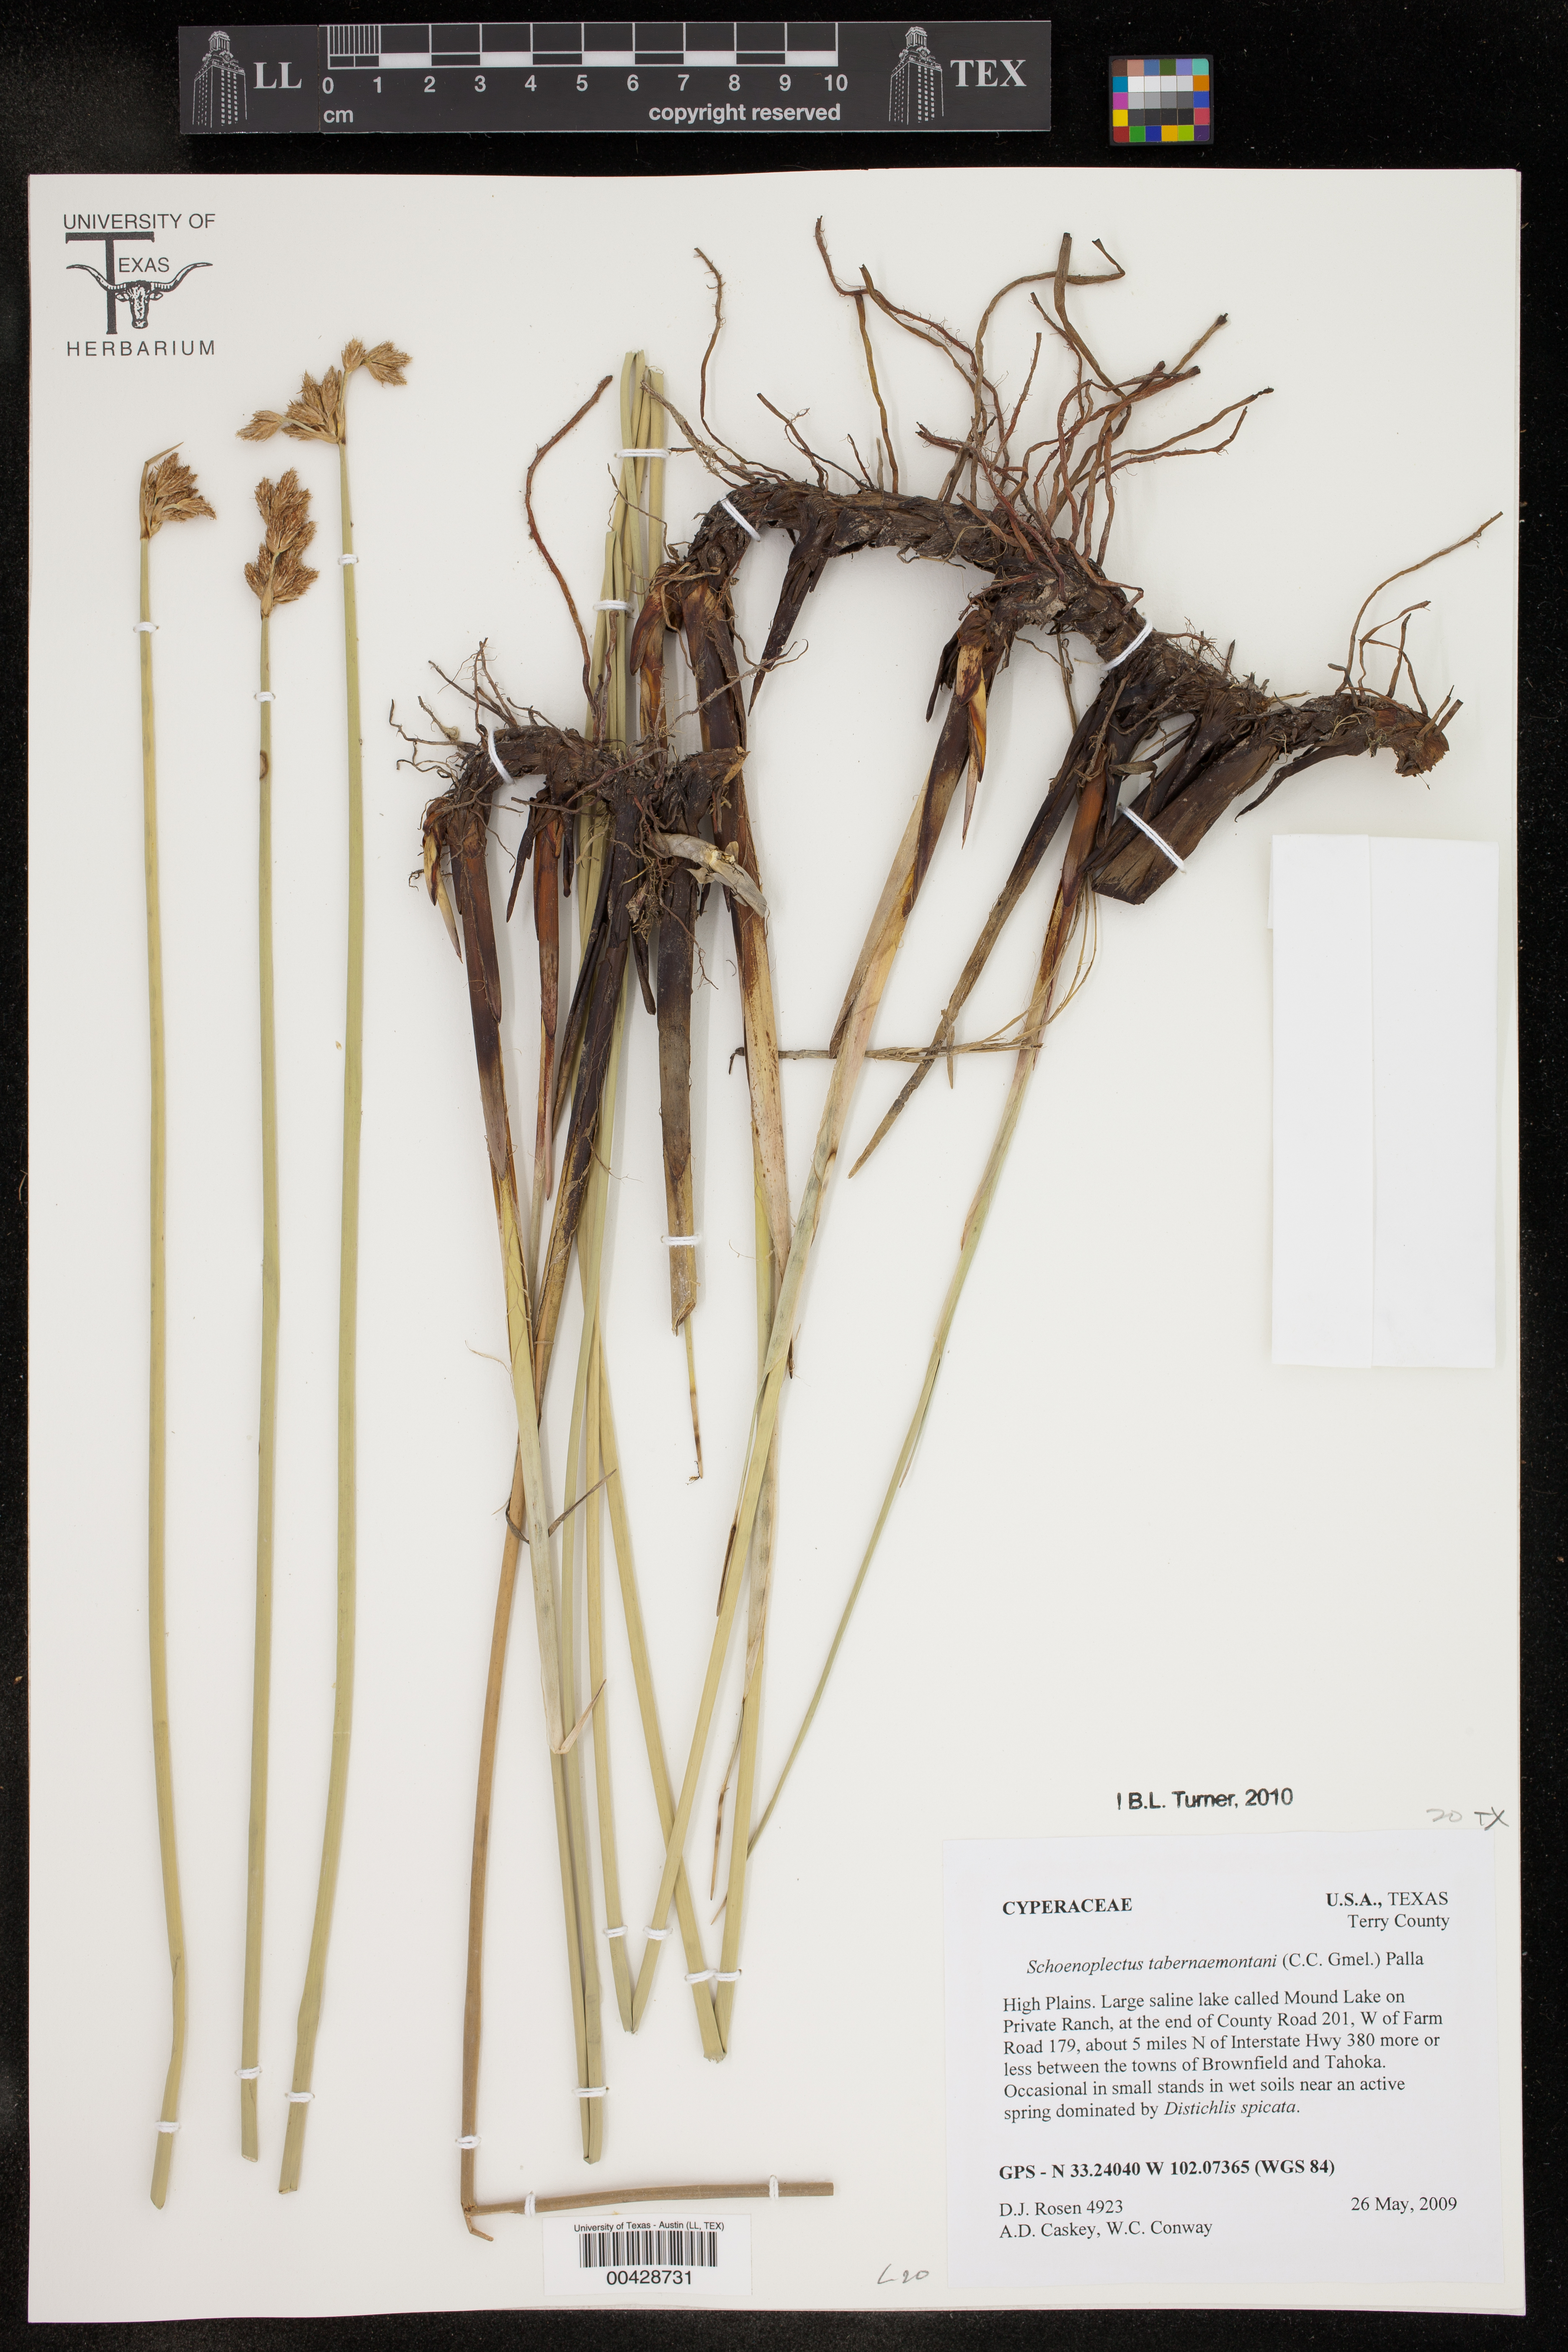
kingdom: Plantae
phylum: Tracheophyta
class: Liliopsida
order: Poales
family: Cyperaceae
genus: Schoenoplectus
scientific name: Schoenoplectus tabernaemontani
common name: Grey club-rush
